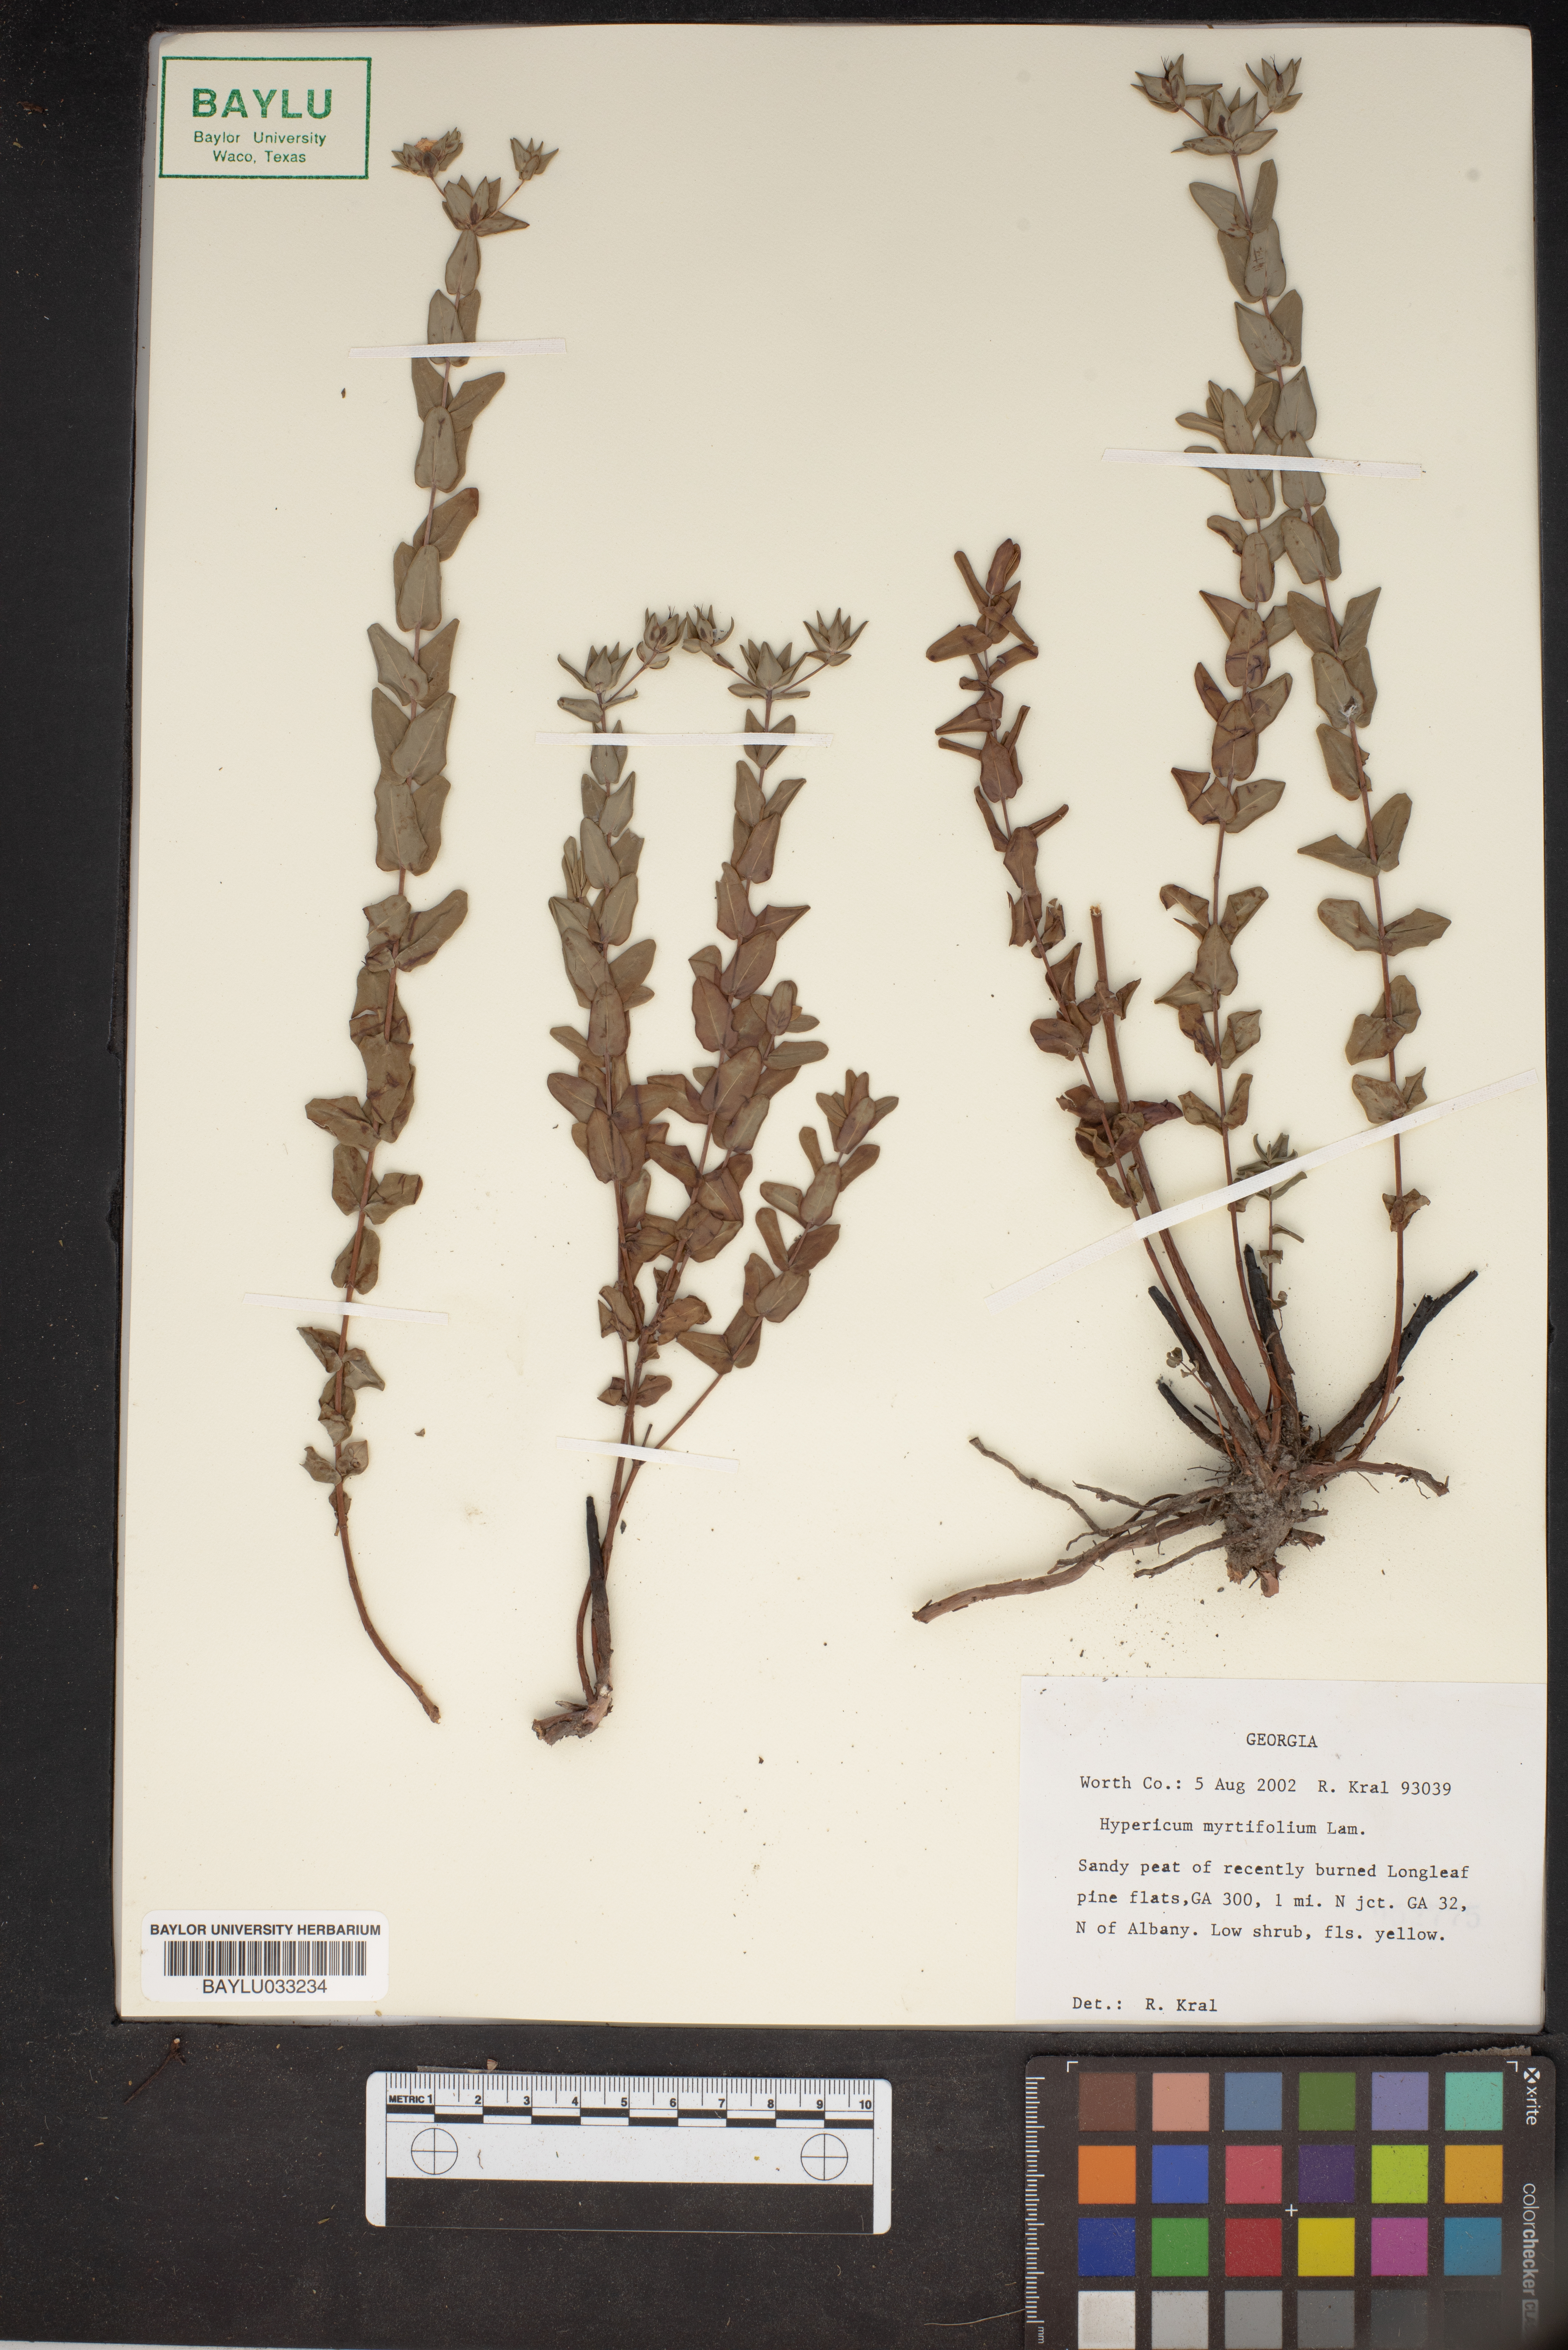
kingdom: Plantae
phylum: Tracheophyta
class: Magnoliopsida
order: Malpighiales
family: Hypericaceae
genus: Hypericum
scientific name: Hypericum myrtifolium
